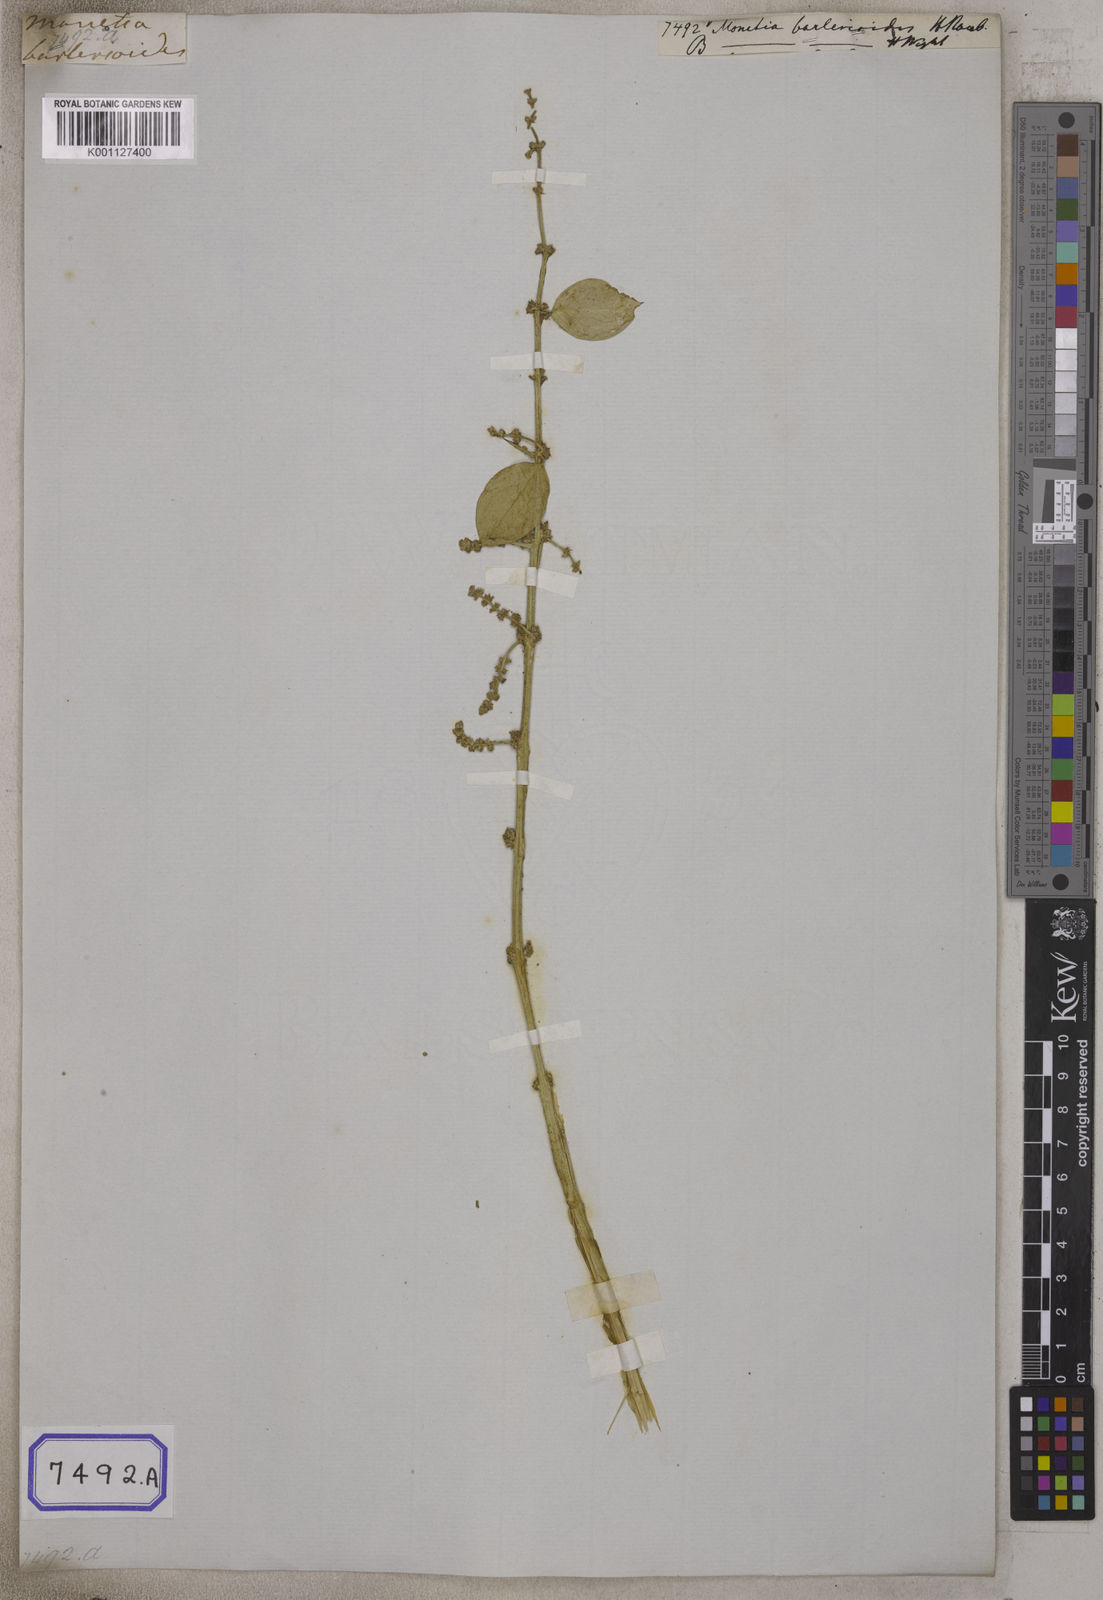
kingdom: Plantae
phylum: Tracheophyta
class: Magnoliopsida
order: Brassicales
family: Salvadoraceae
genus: Azima
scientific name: Azima
